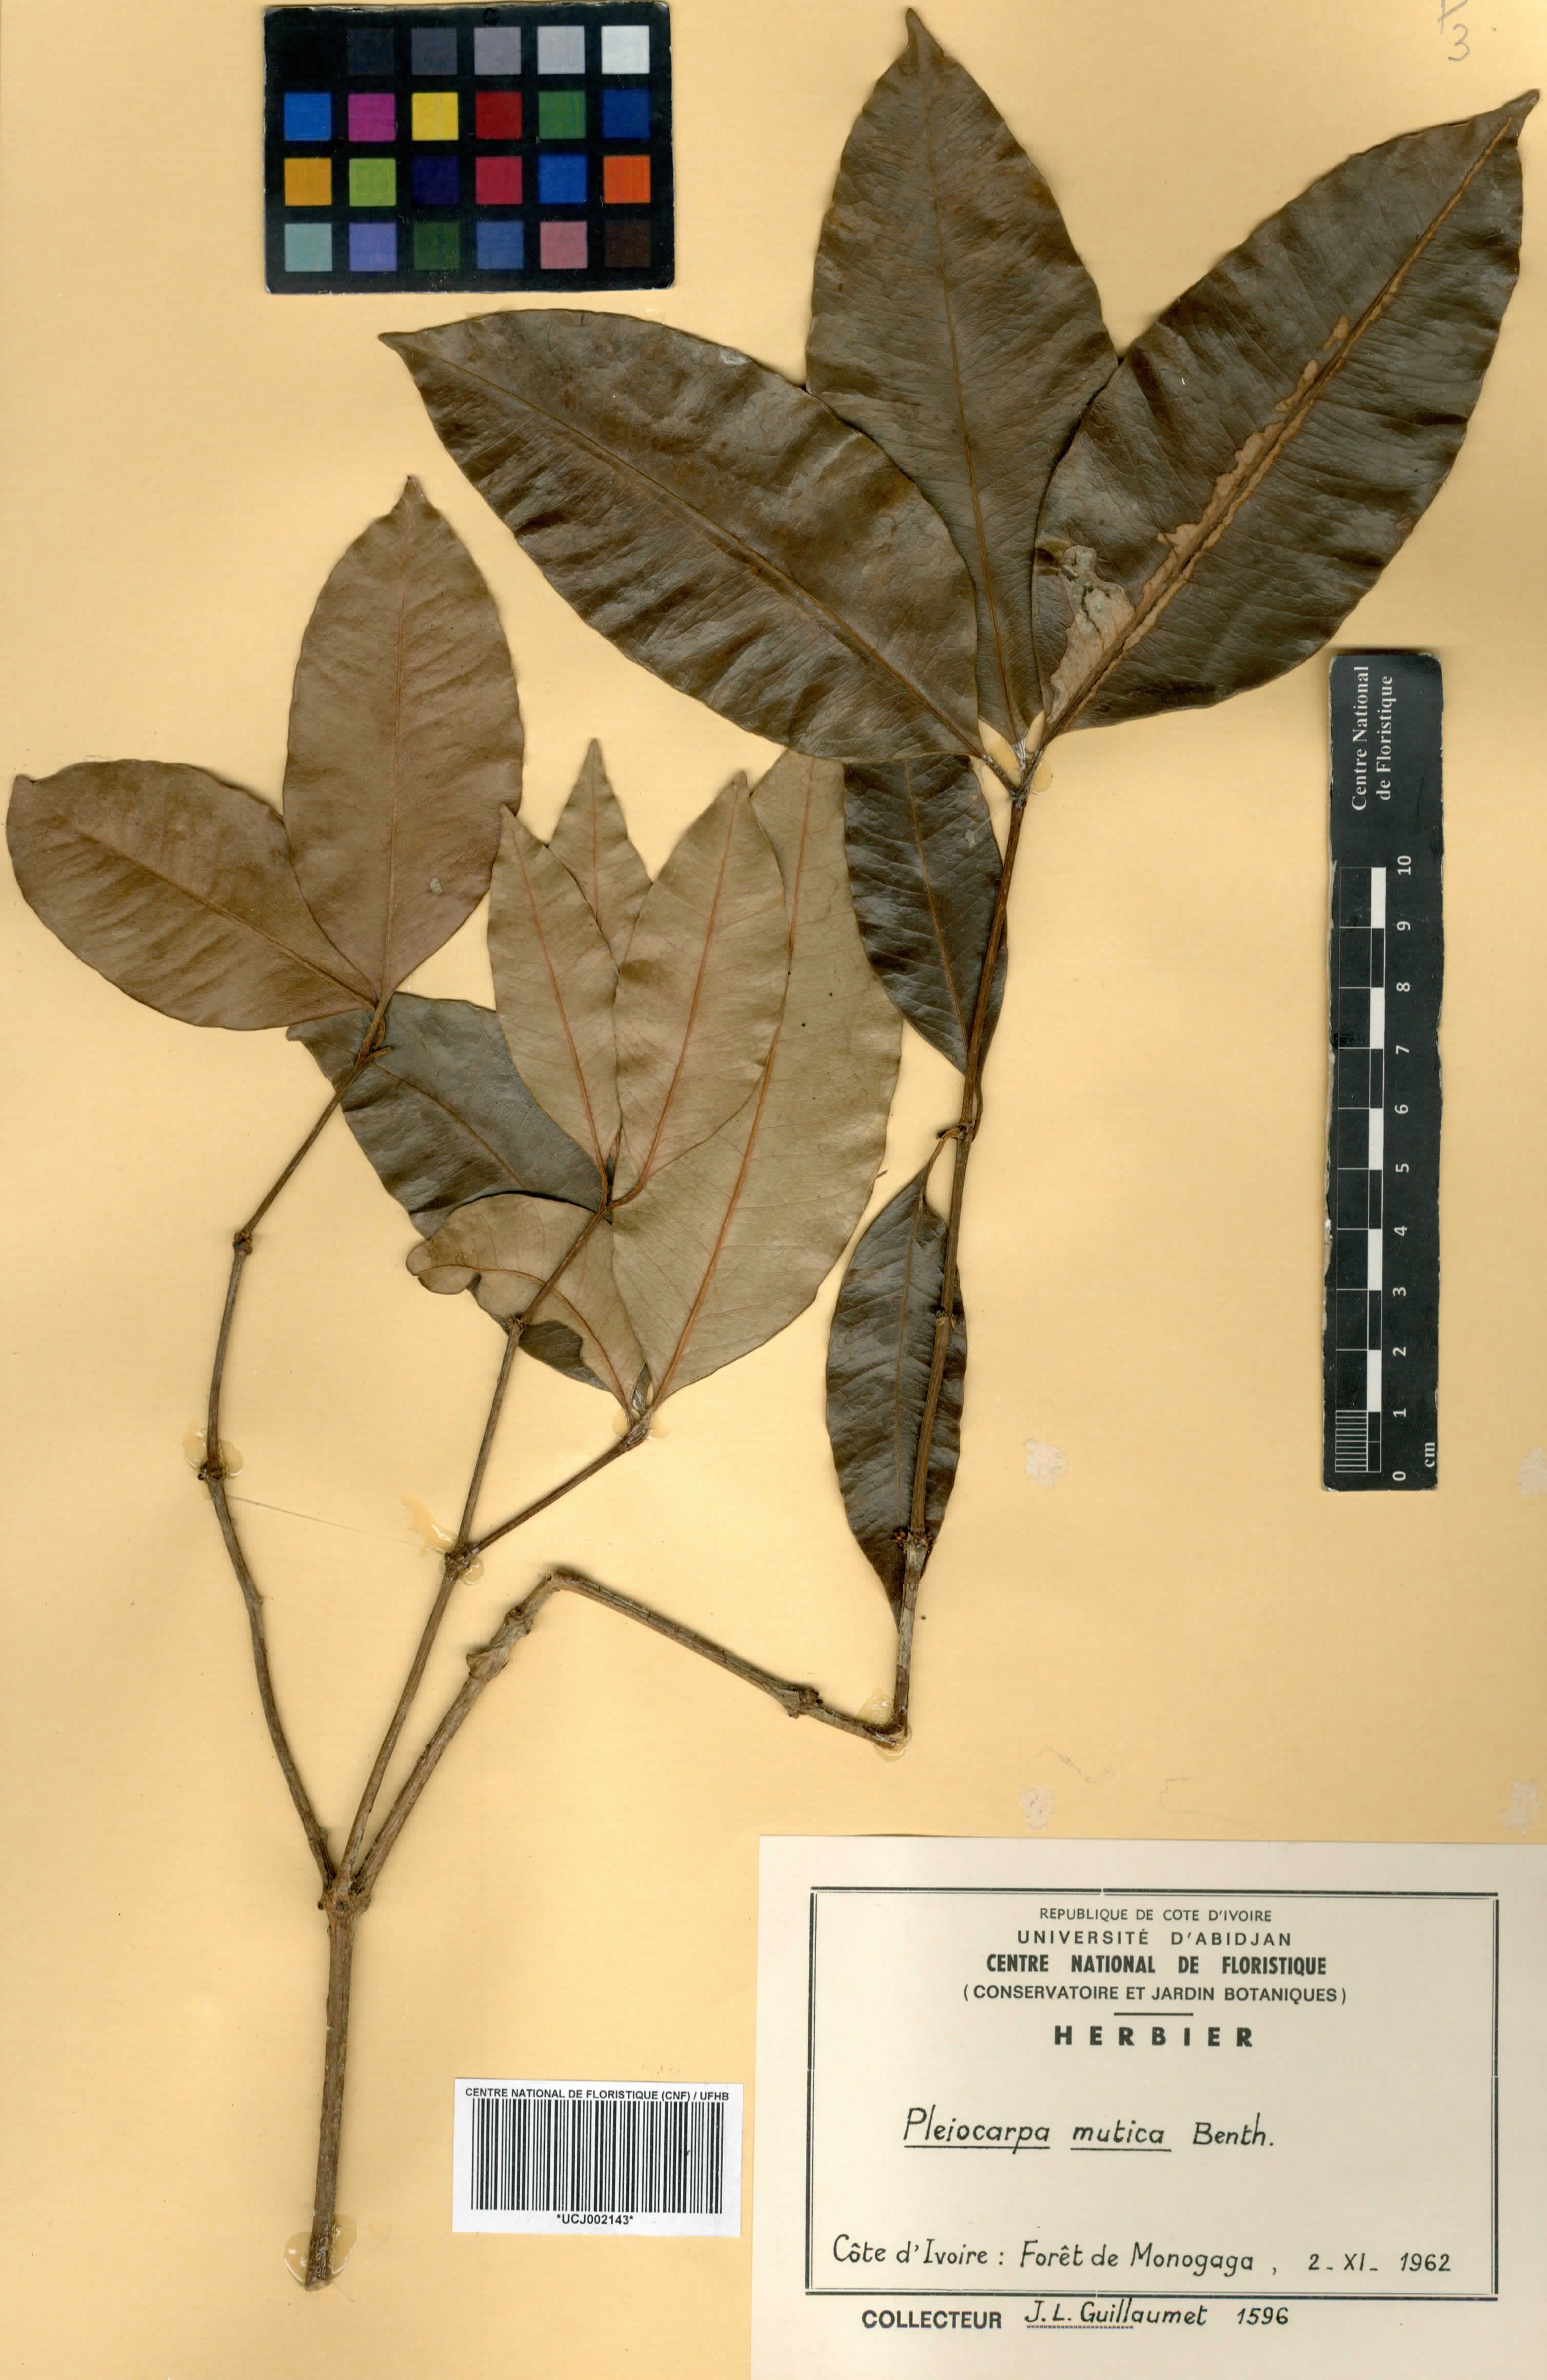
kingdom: Plantae
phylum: Tracheophyta
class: Magnoliopsida
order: Gentianales
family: Apocynaceae
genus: Pleiocarpa
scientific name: Pleiocarpa mutica
